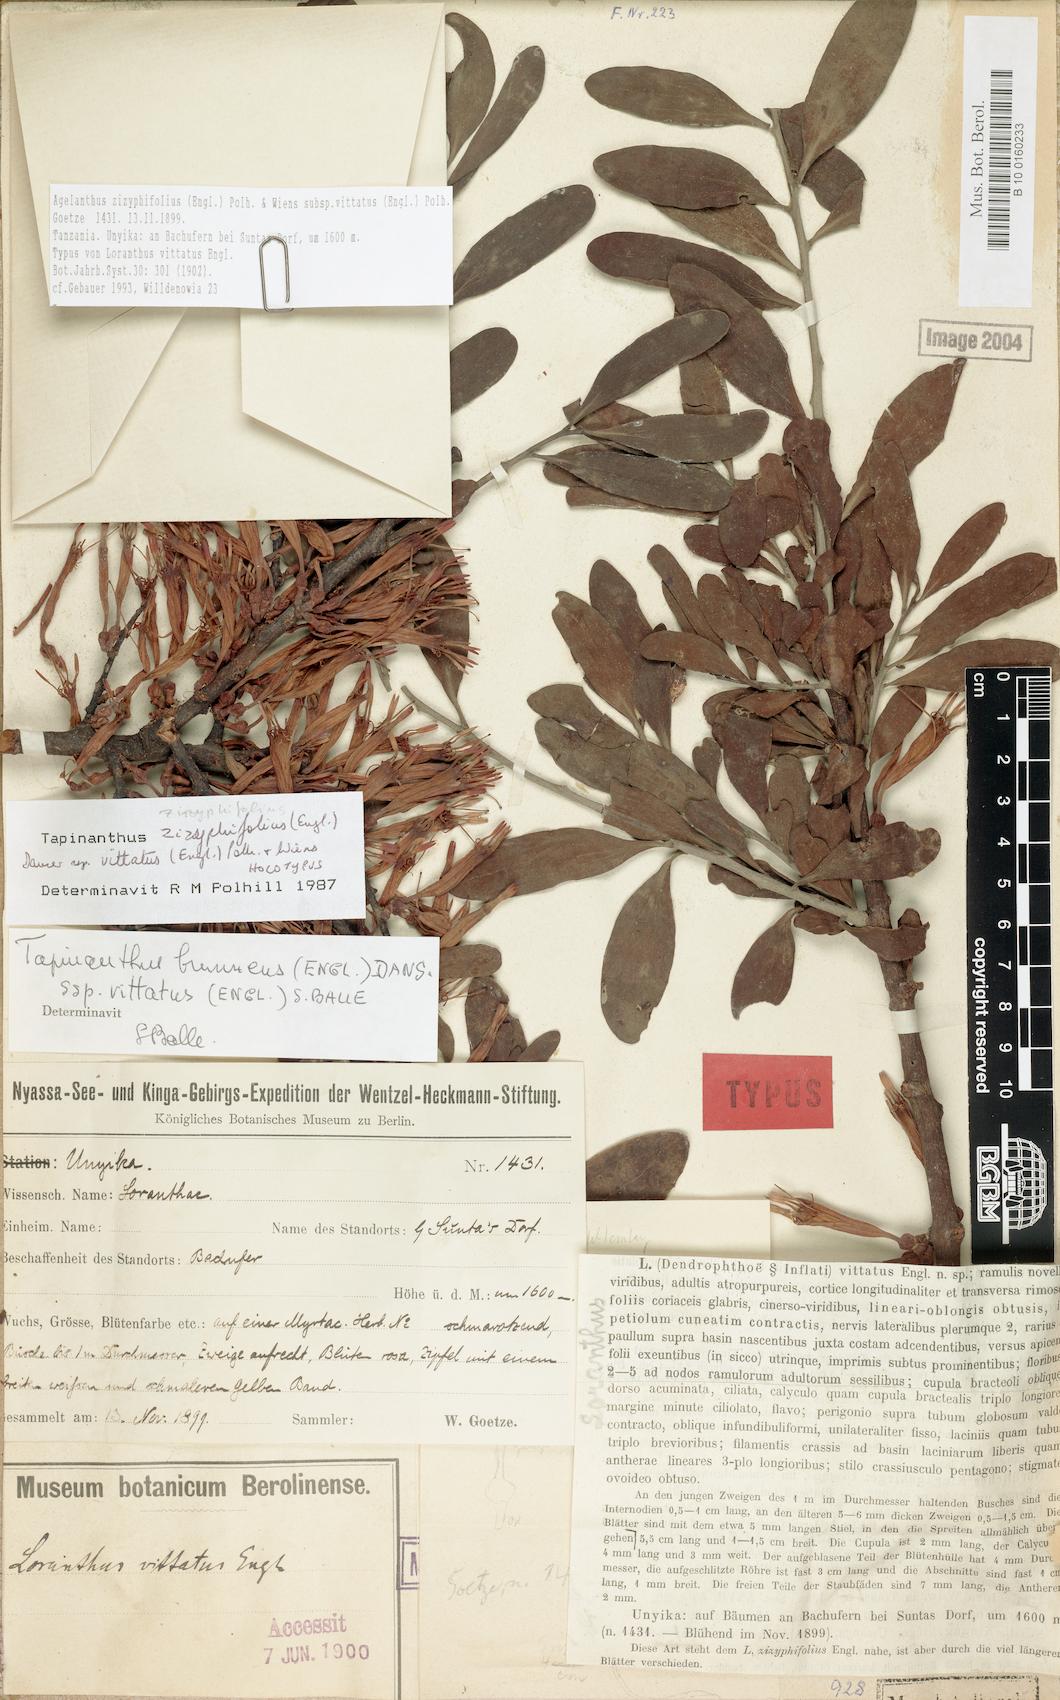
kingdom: Plantae
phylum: Tracheophyta
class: Magnoliopsida
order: Santalales
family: Loranthaceae
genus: Agelanthus
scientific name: Agelanthus zizyphifolius
